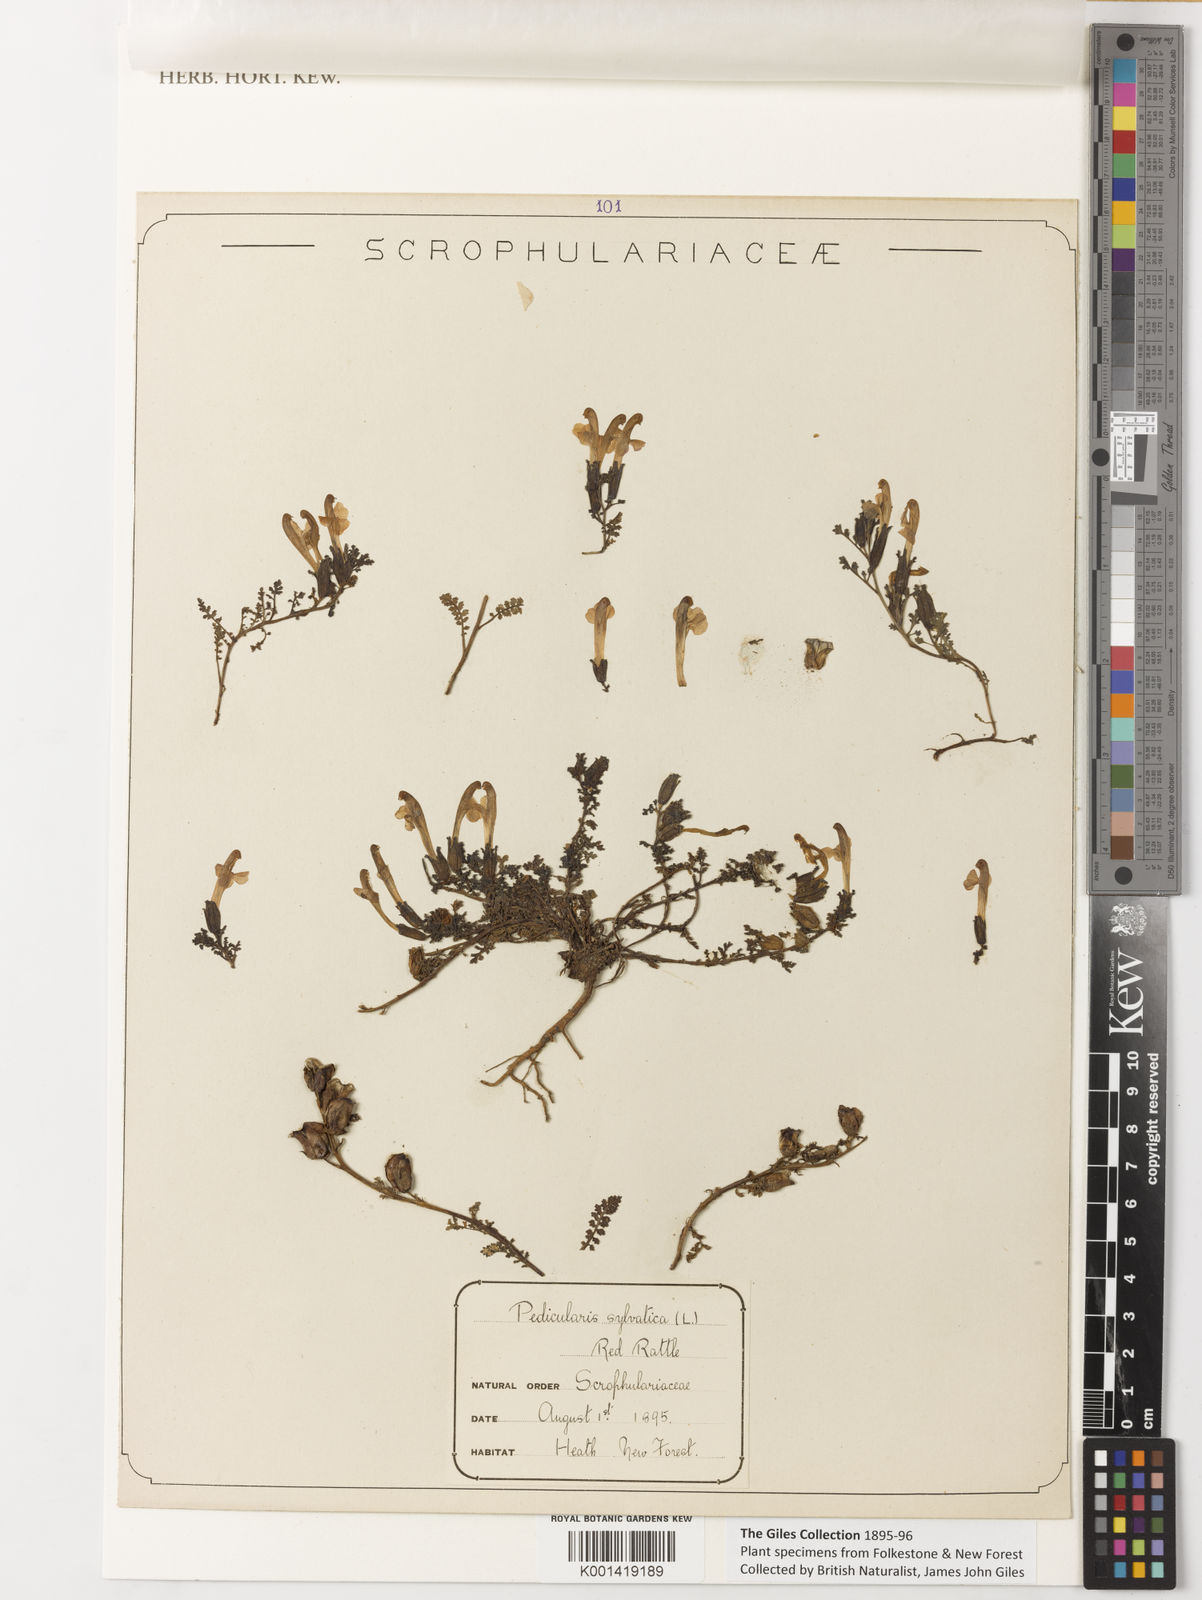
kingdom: Plantae
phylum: Tracheophyta
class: Magnoliopsida
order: Lamiales
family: Orobanchaceae
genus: Pedicularis
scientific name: Pedicularis sylvatica
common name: Lousewort
